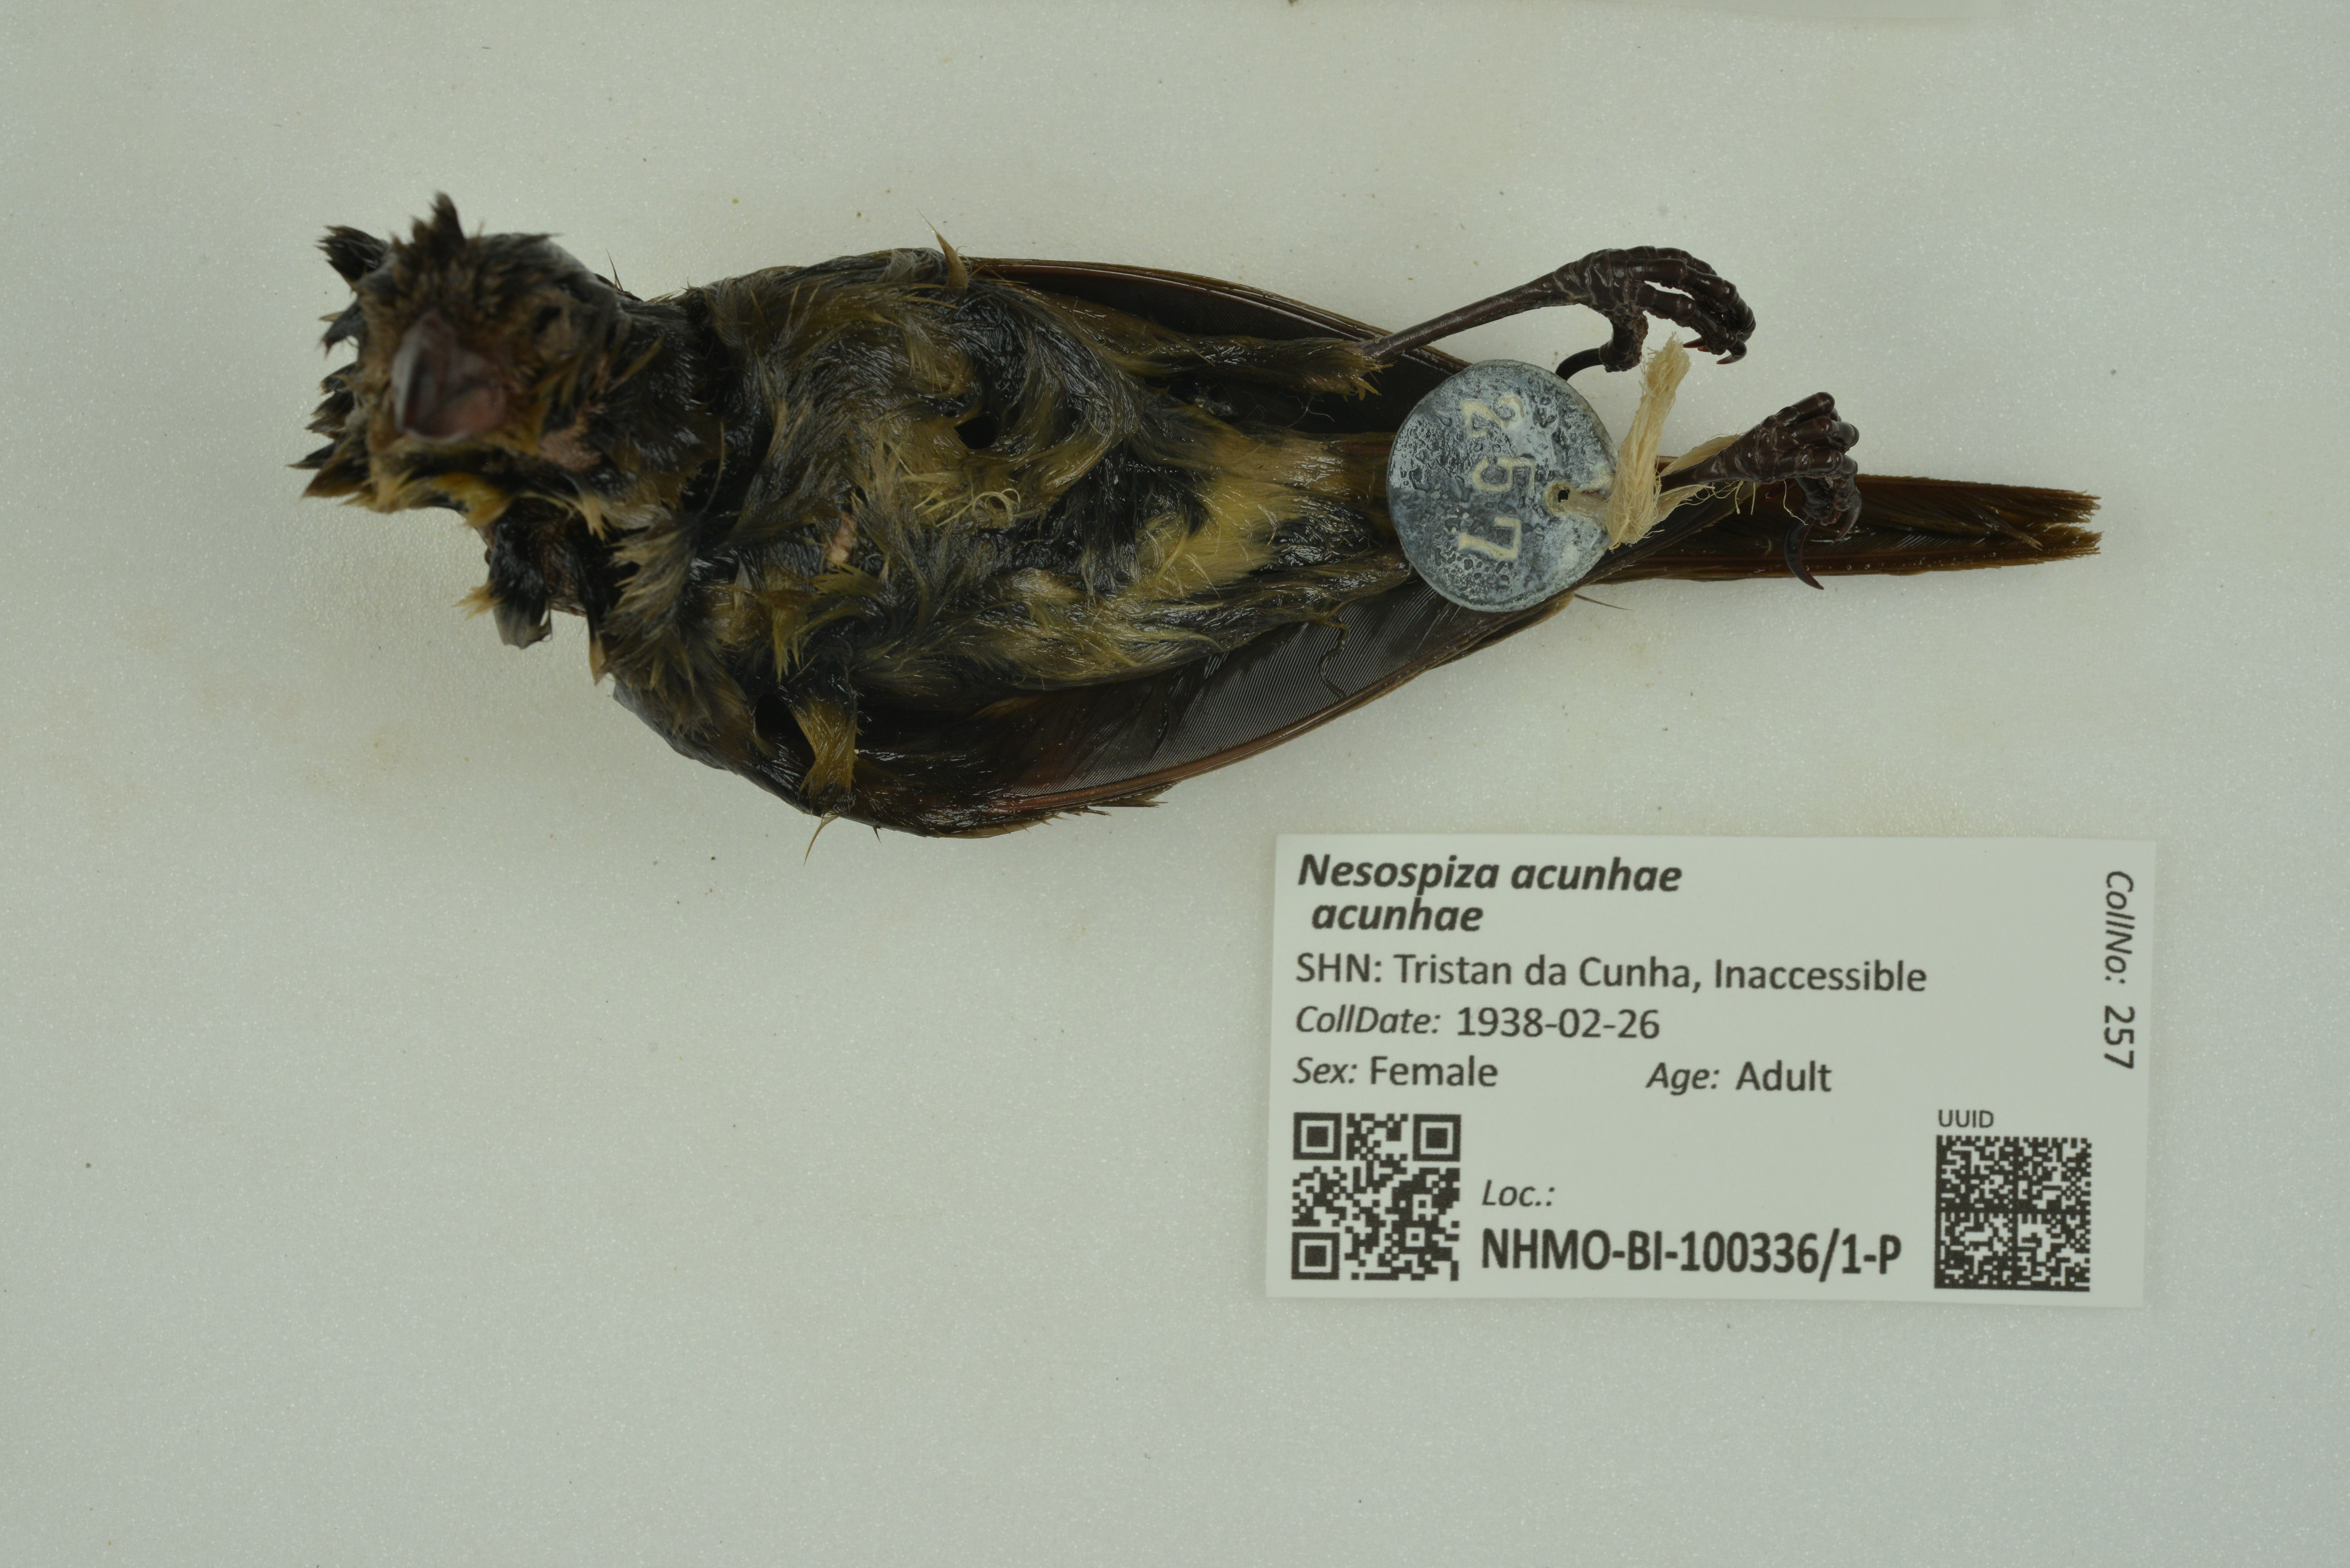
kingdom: Animalia
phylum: Chordata
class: Aves
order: Passeriformes
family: Thraupidae
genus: Nesospiza
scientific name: Nesospiza acunhae
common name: Inaccessible island finch
